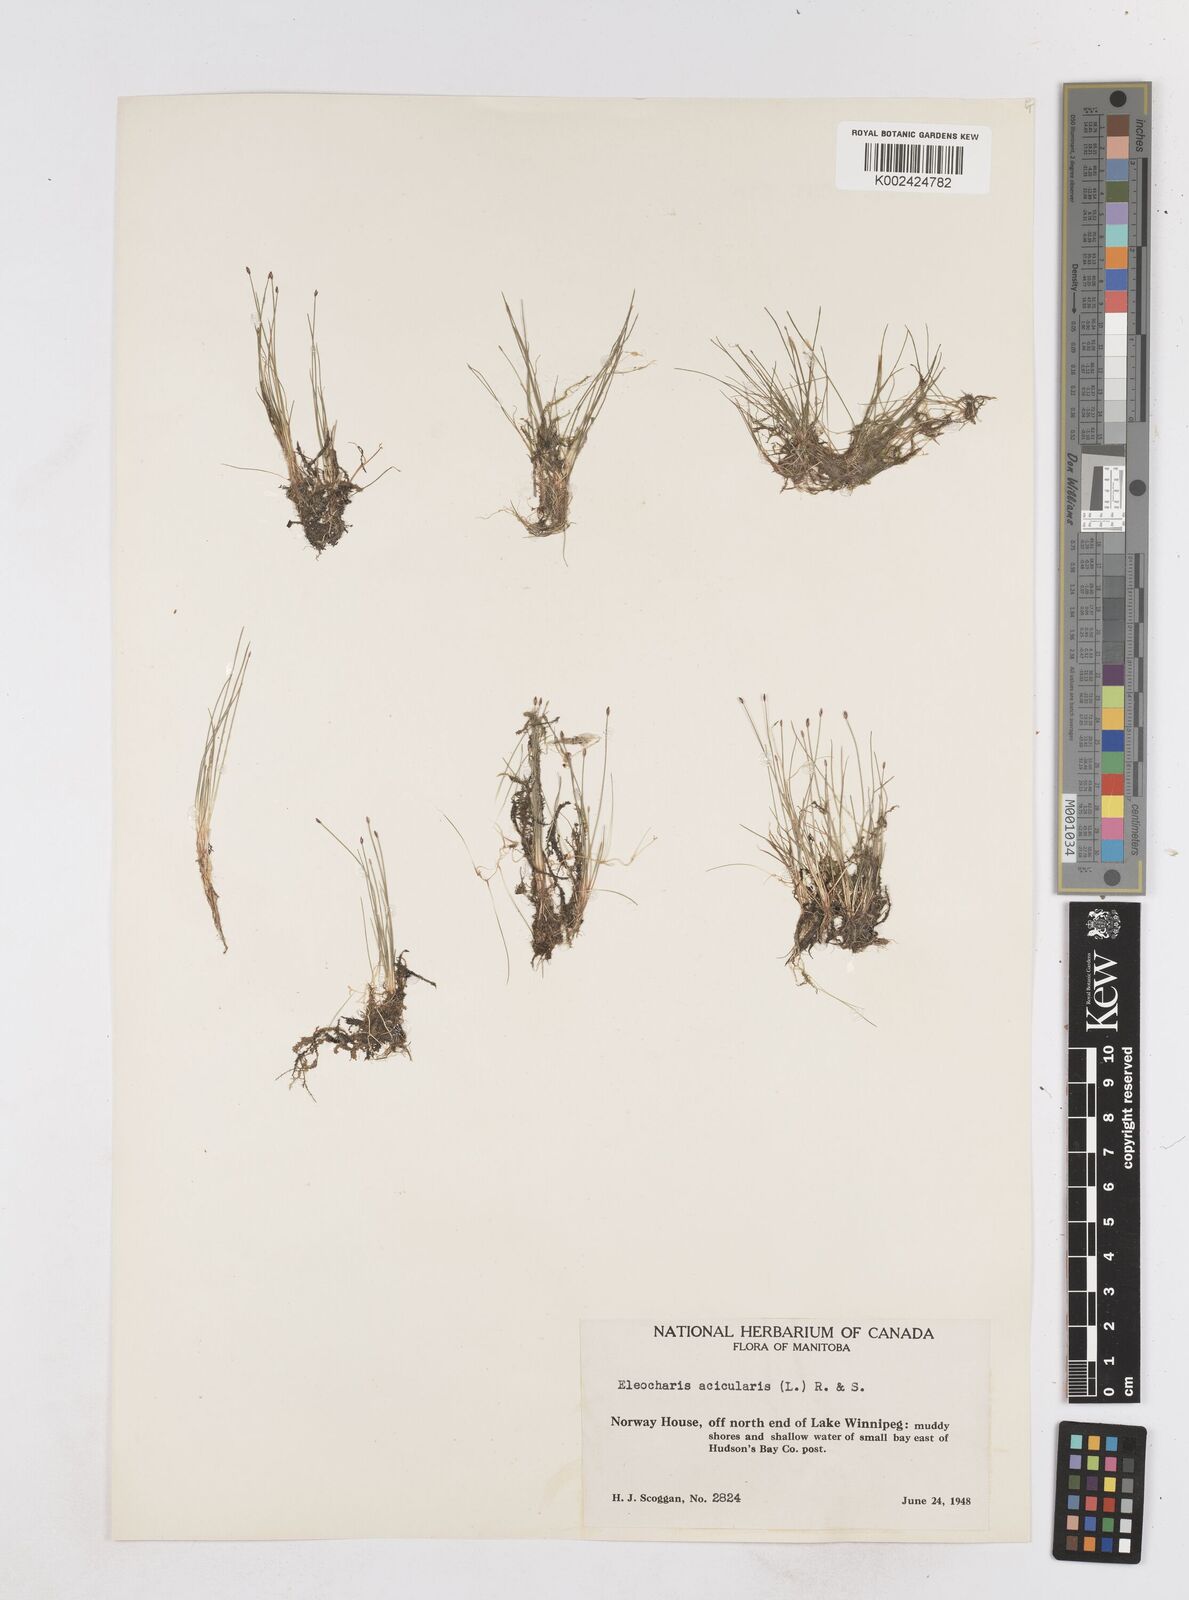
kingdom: Plantae
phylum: Tracheophyta
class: Liliopsida
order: Poales
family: Cyperaceae
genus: Eleocharis
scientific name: Eleocharis acicularis
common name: Needle spike-rush
